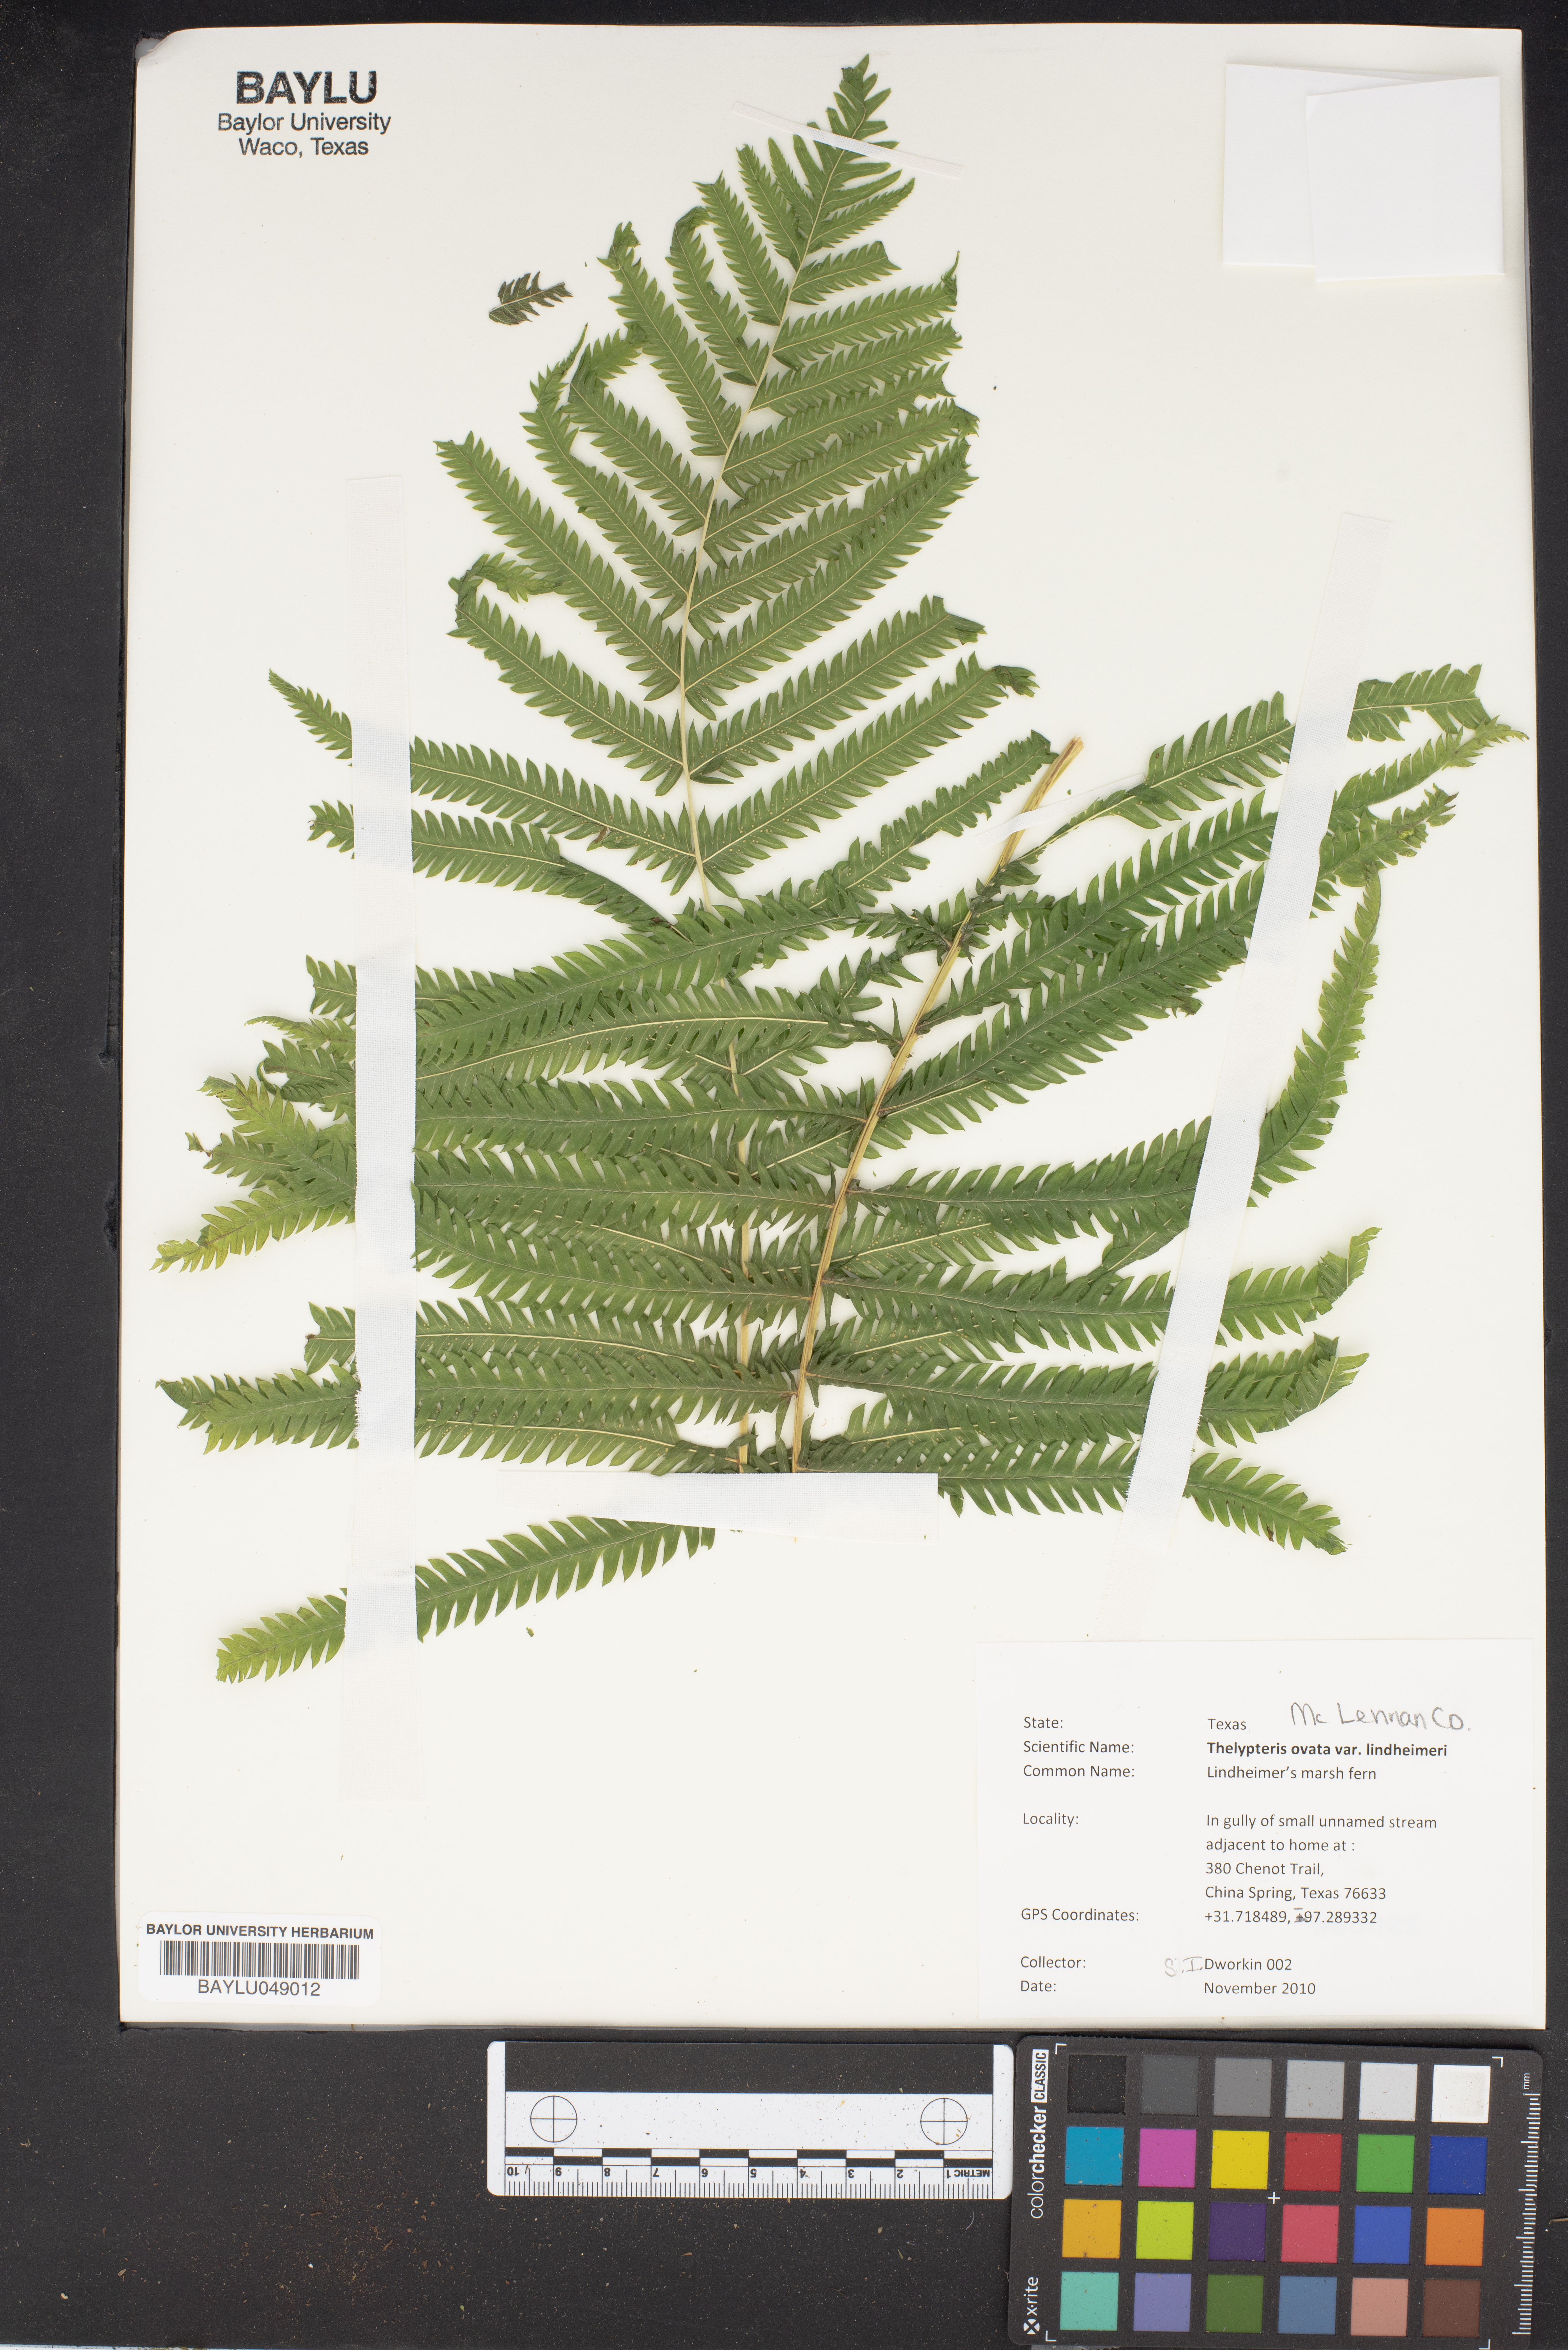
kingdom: Plantae
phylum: Tracheophyta
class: Polypodiopsida
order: Polypodiales
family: Thelypteridaceae
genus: Pelazoneuron
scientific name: Pelazoneuron ovatum
